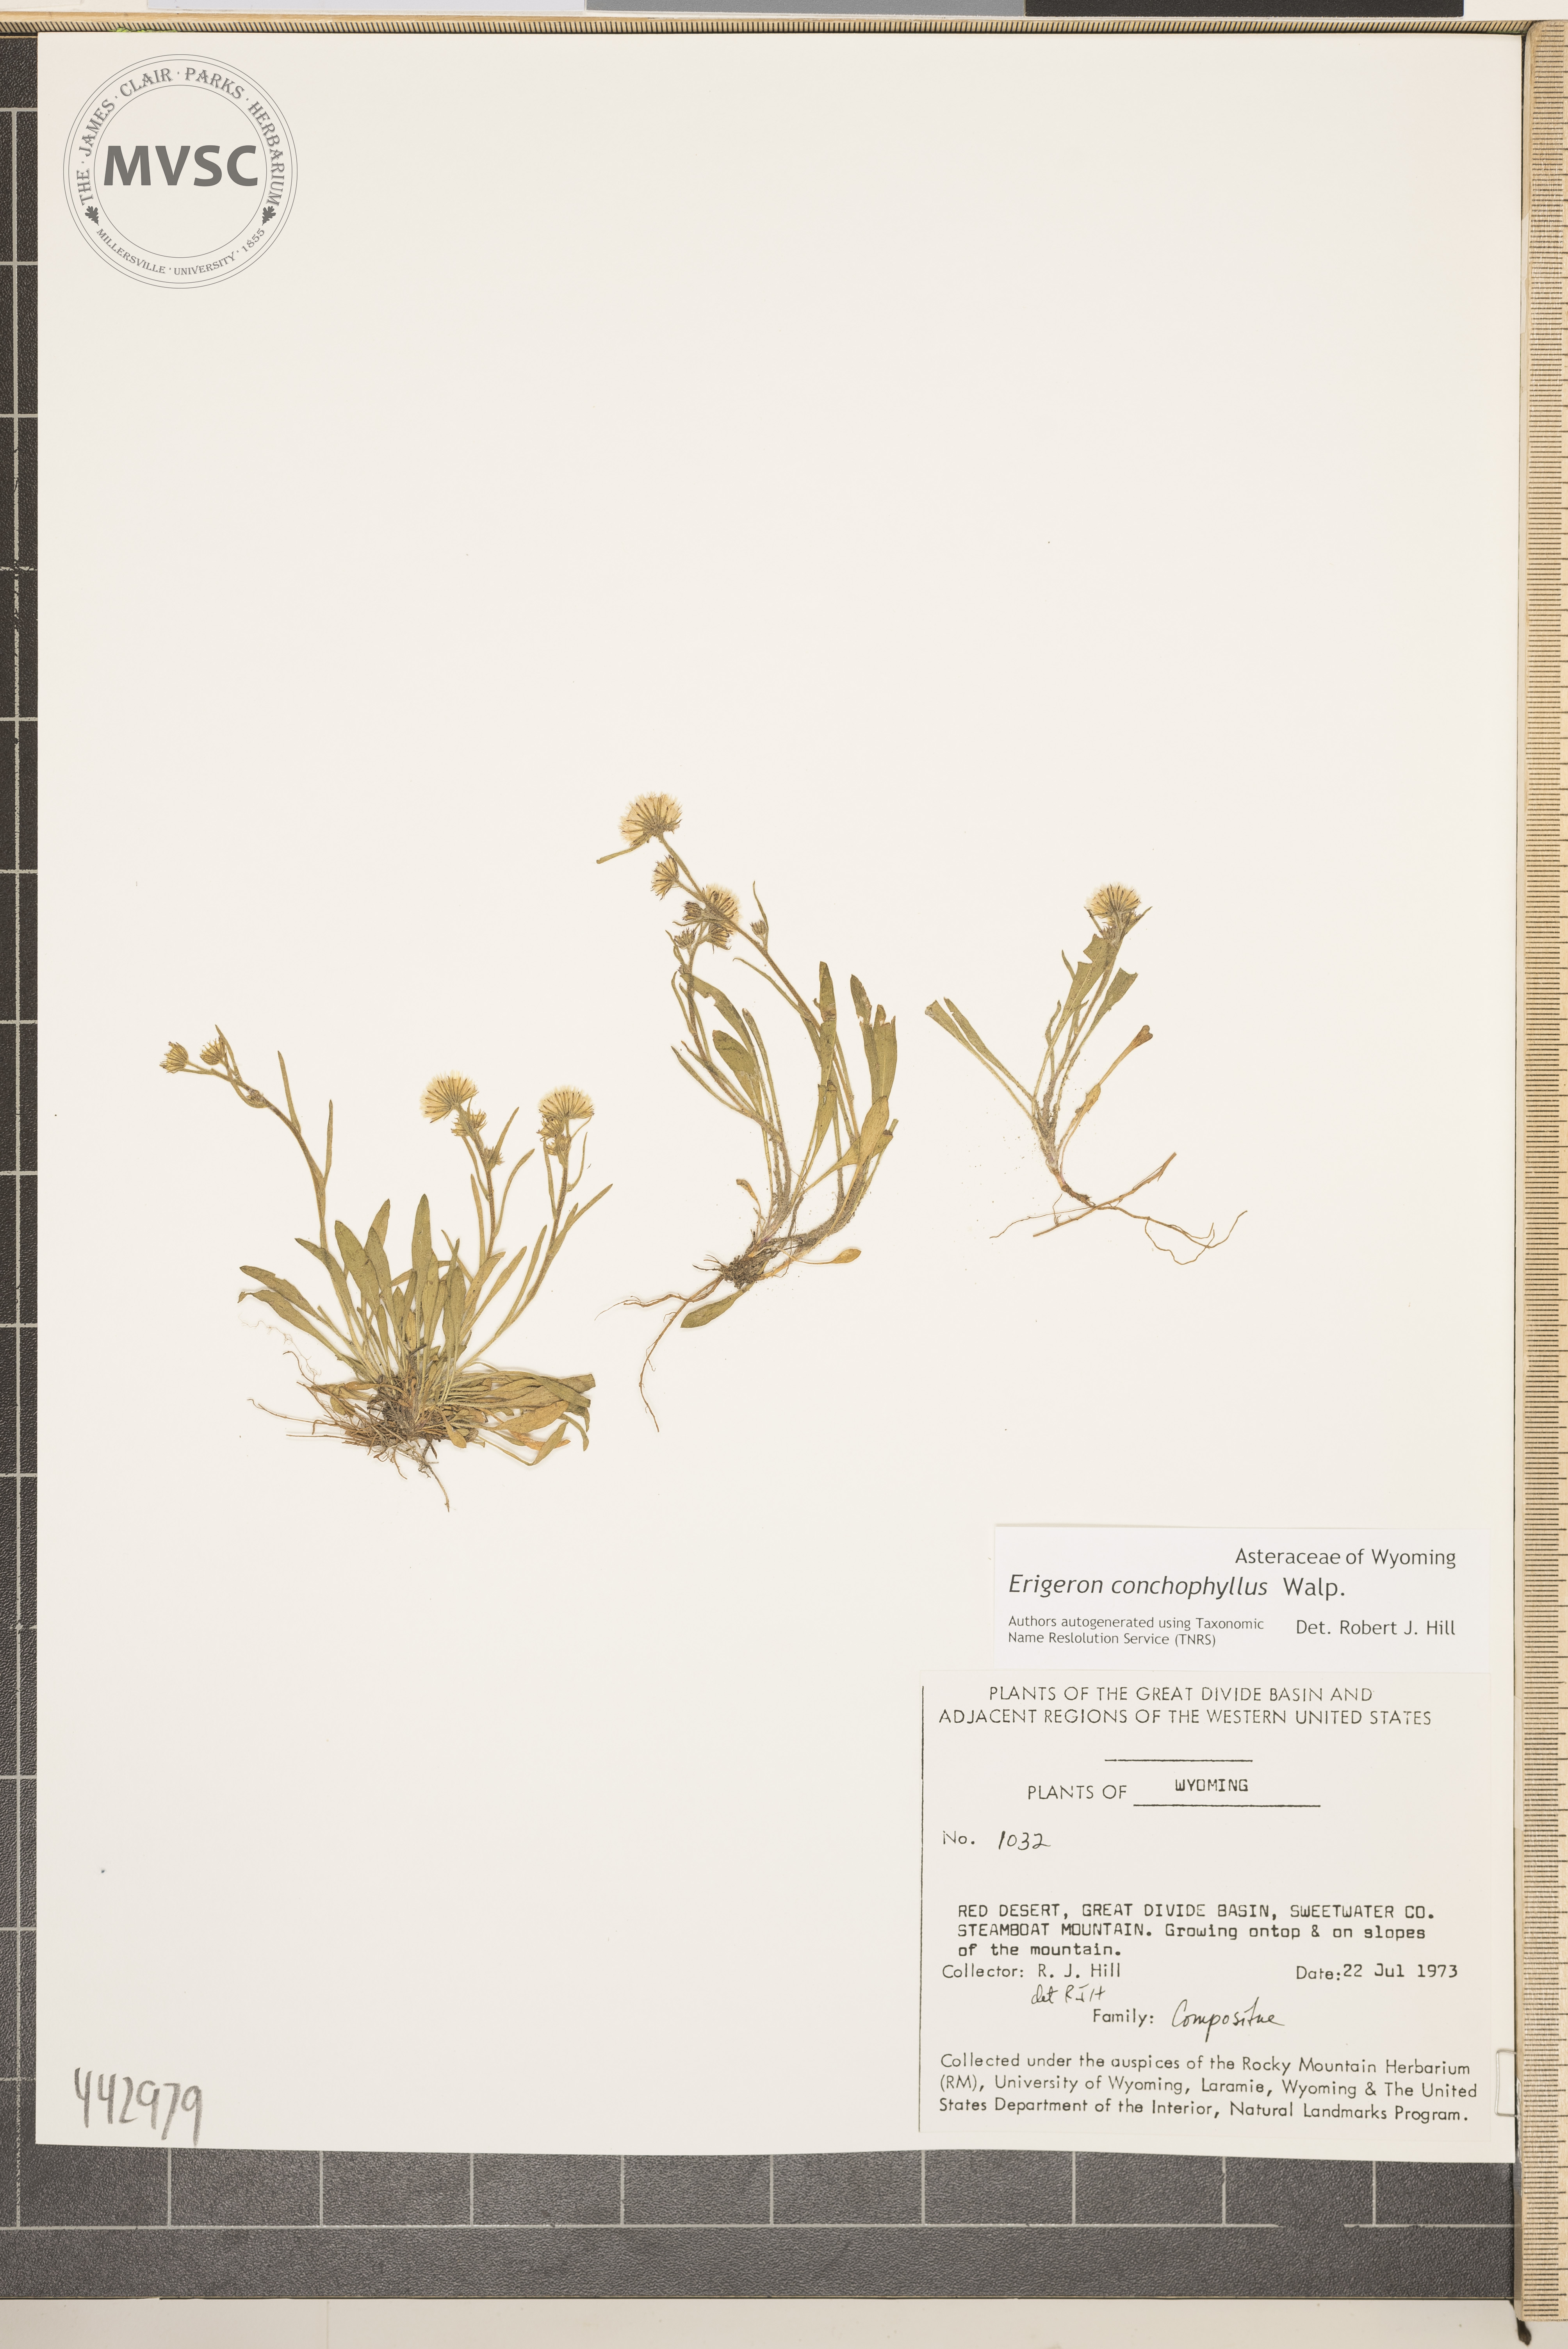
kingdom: Plantae
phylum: Tracheophyta
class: Magnoliopsida
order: Asterales
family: Asteraceae
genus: Erigeron
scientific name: Erigeron lonchophyllus
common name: Short-ray fleabane
